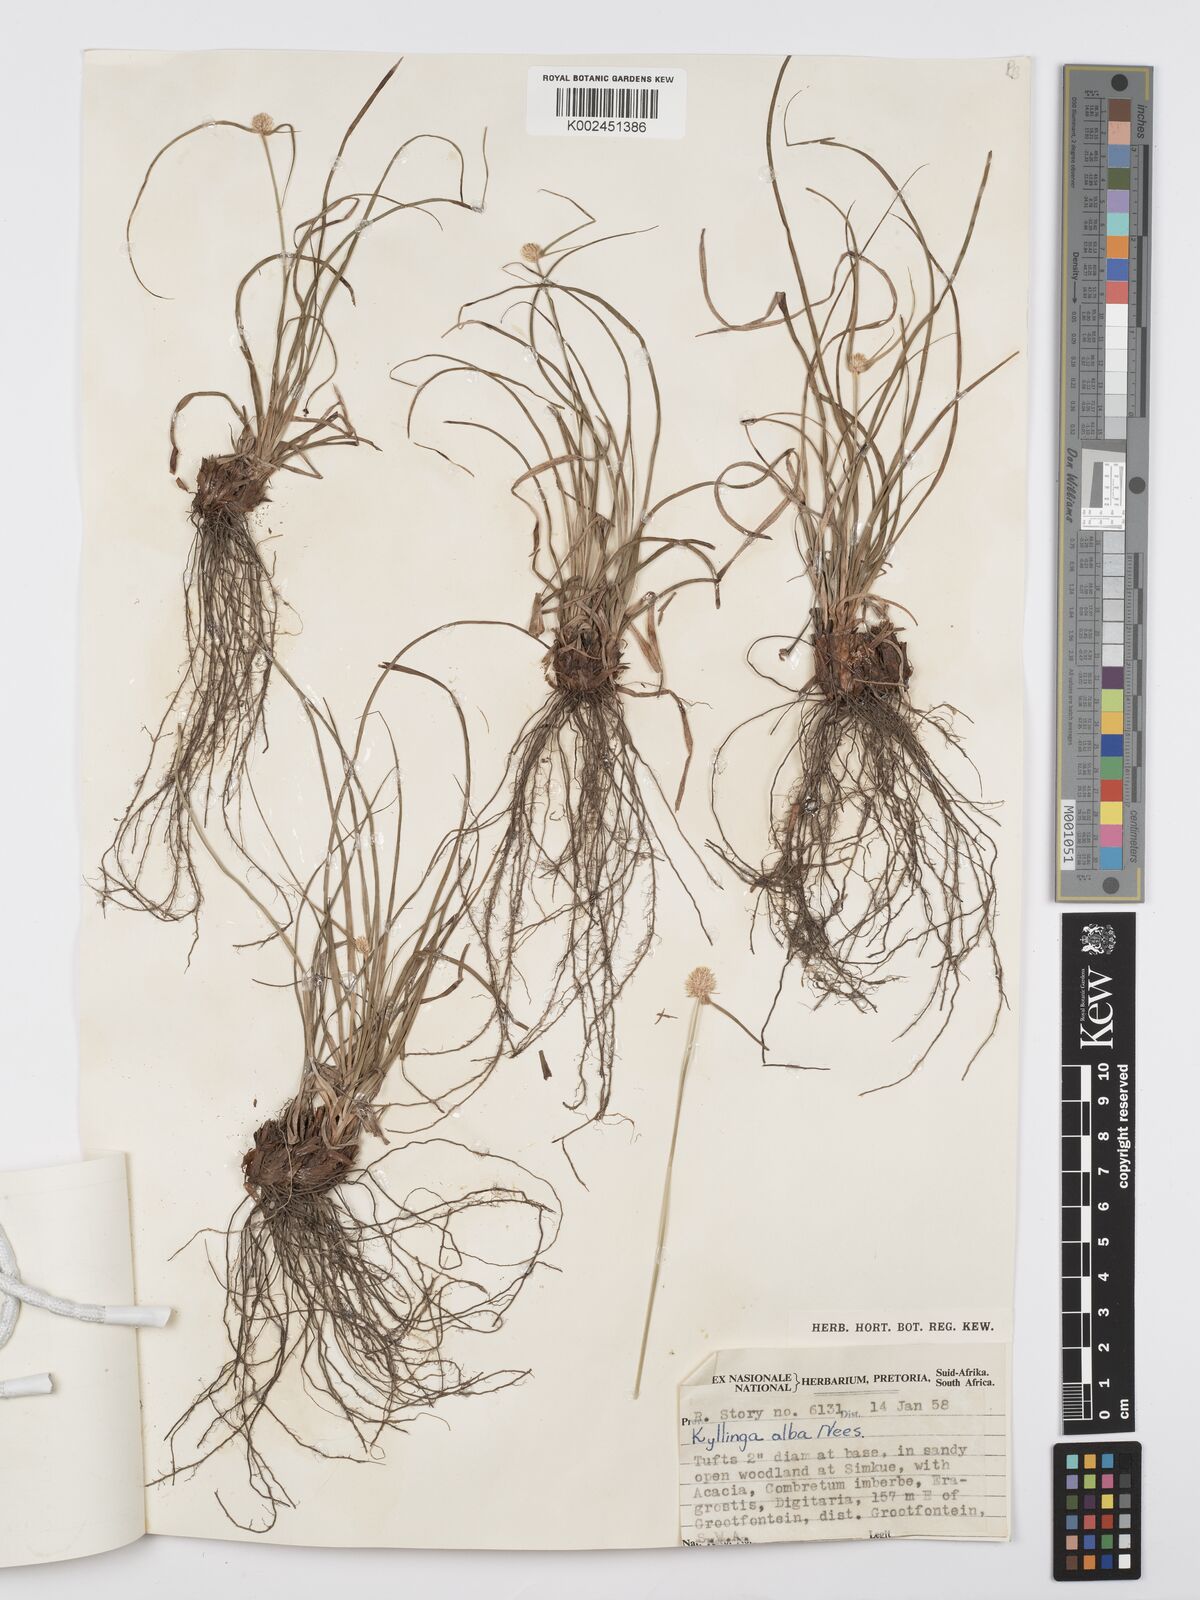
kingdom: Plantae
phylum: Tracheophyta
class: Liliopsida
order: Poales
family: Cyperaceae
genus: Cyperus
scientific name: Cyperus alatus
